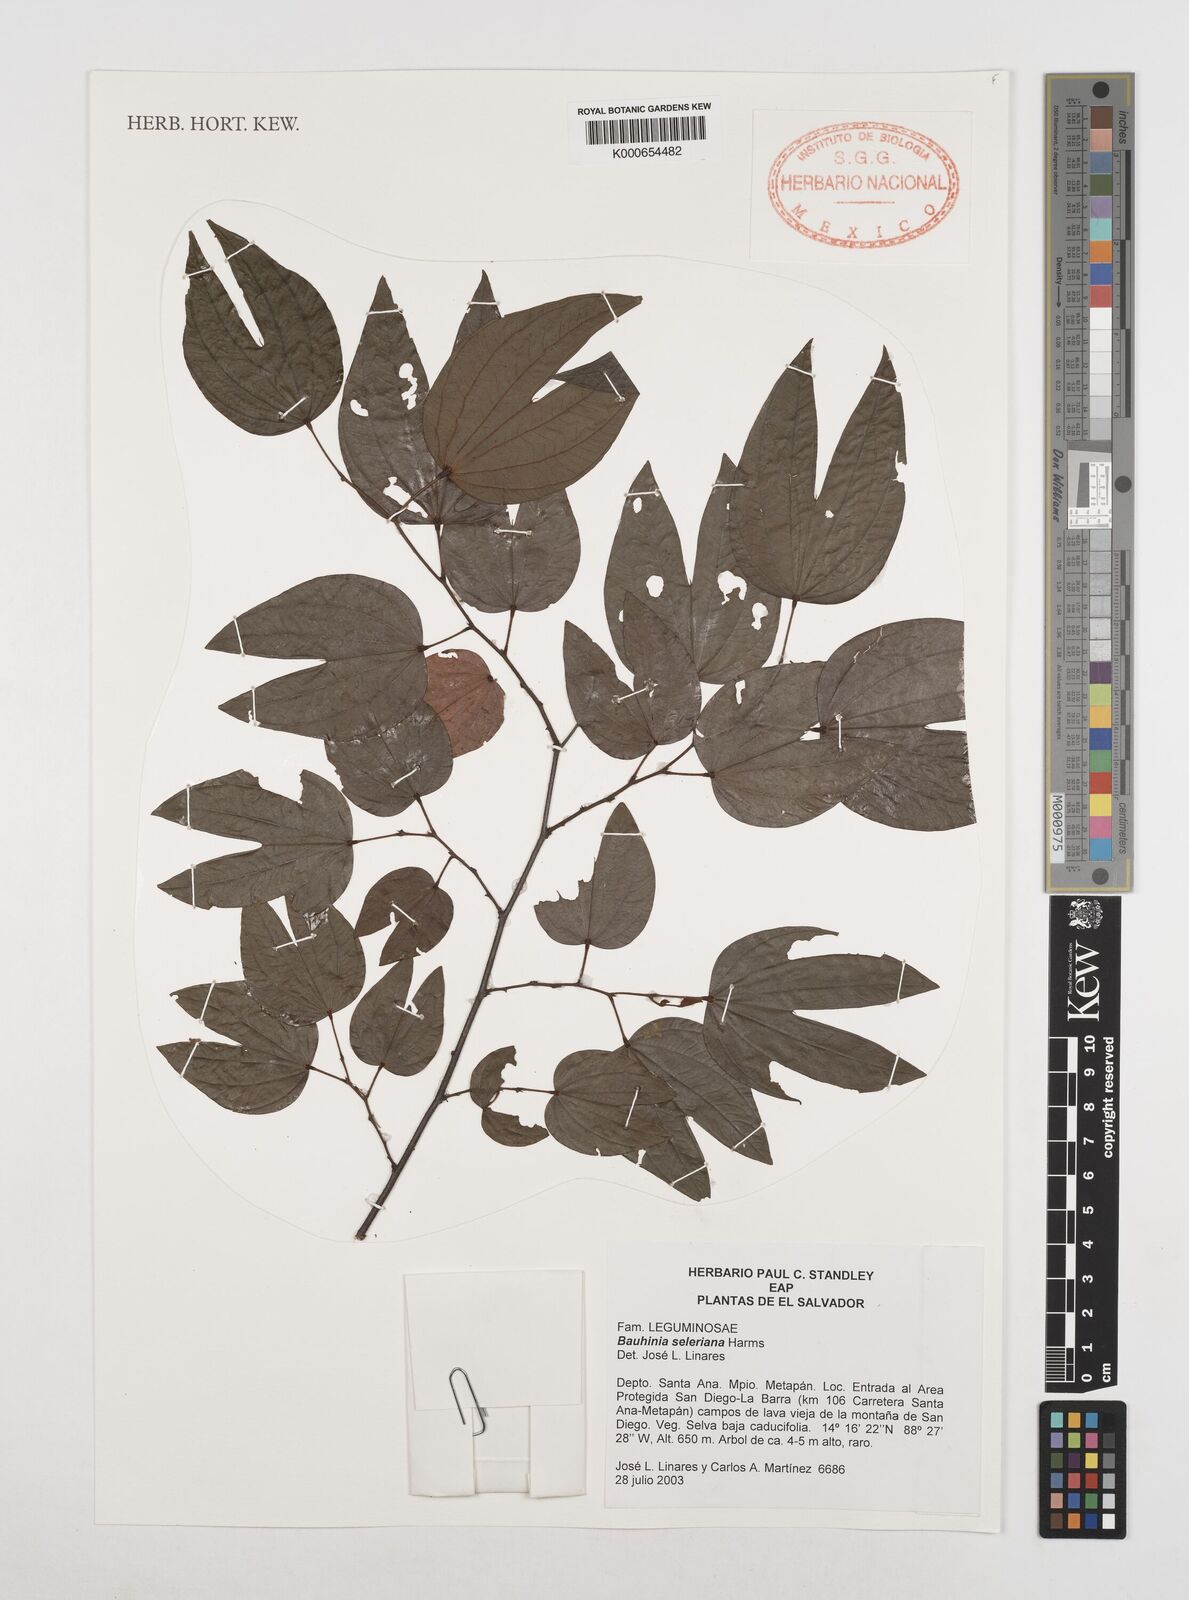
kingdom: Plantae
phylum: Tracheophyta
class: Magnoliopsida
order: Fabales
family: Fabaceae
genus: Bauhinia
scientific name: Bauhinia seleriana
